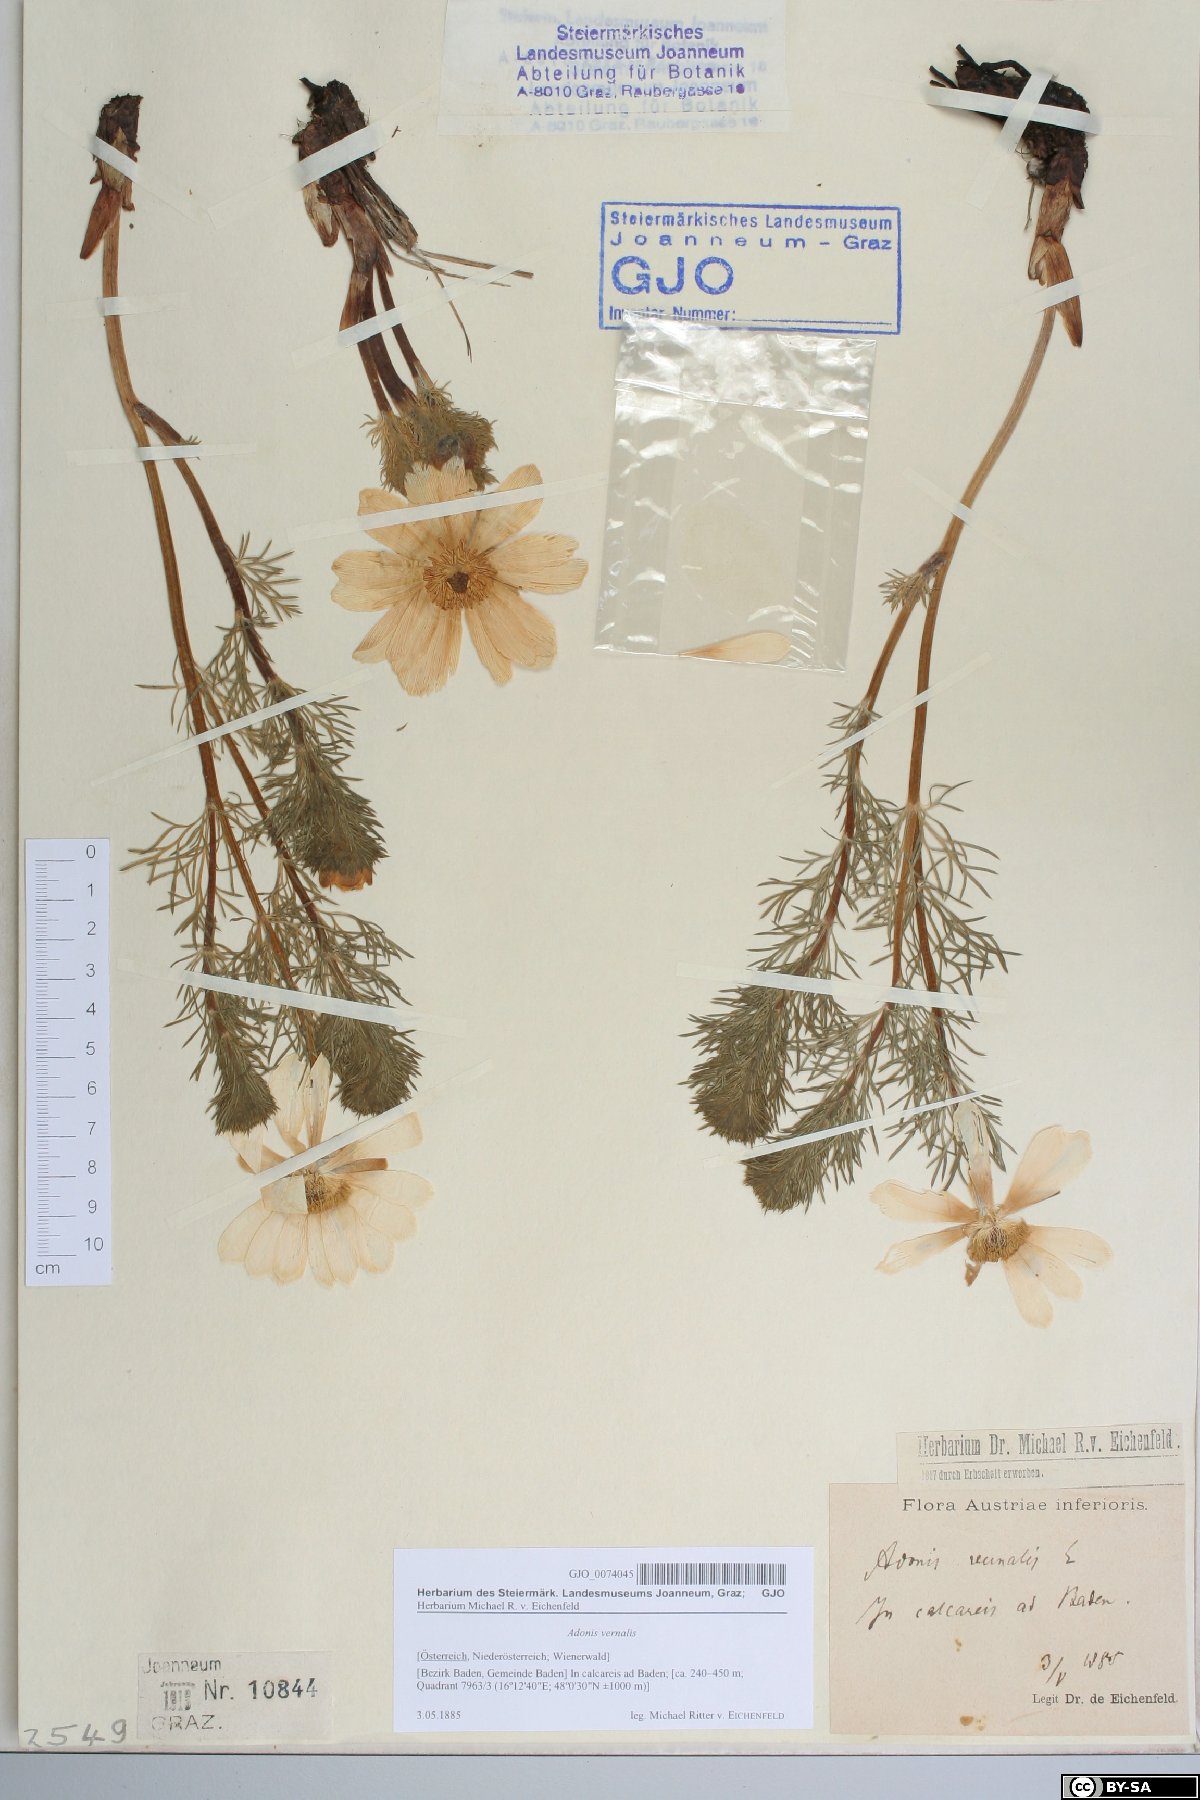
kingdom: Plantae
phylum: Tracheophyta
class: Magnoliopsida
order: Ranunculales
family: Ranunculaceae
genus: Adonis
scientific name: Adonis vernalis
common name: Yellow pheasants-eye
